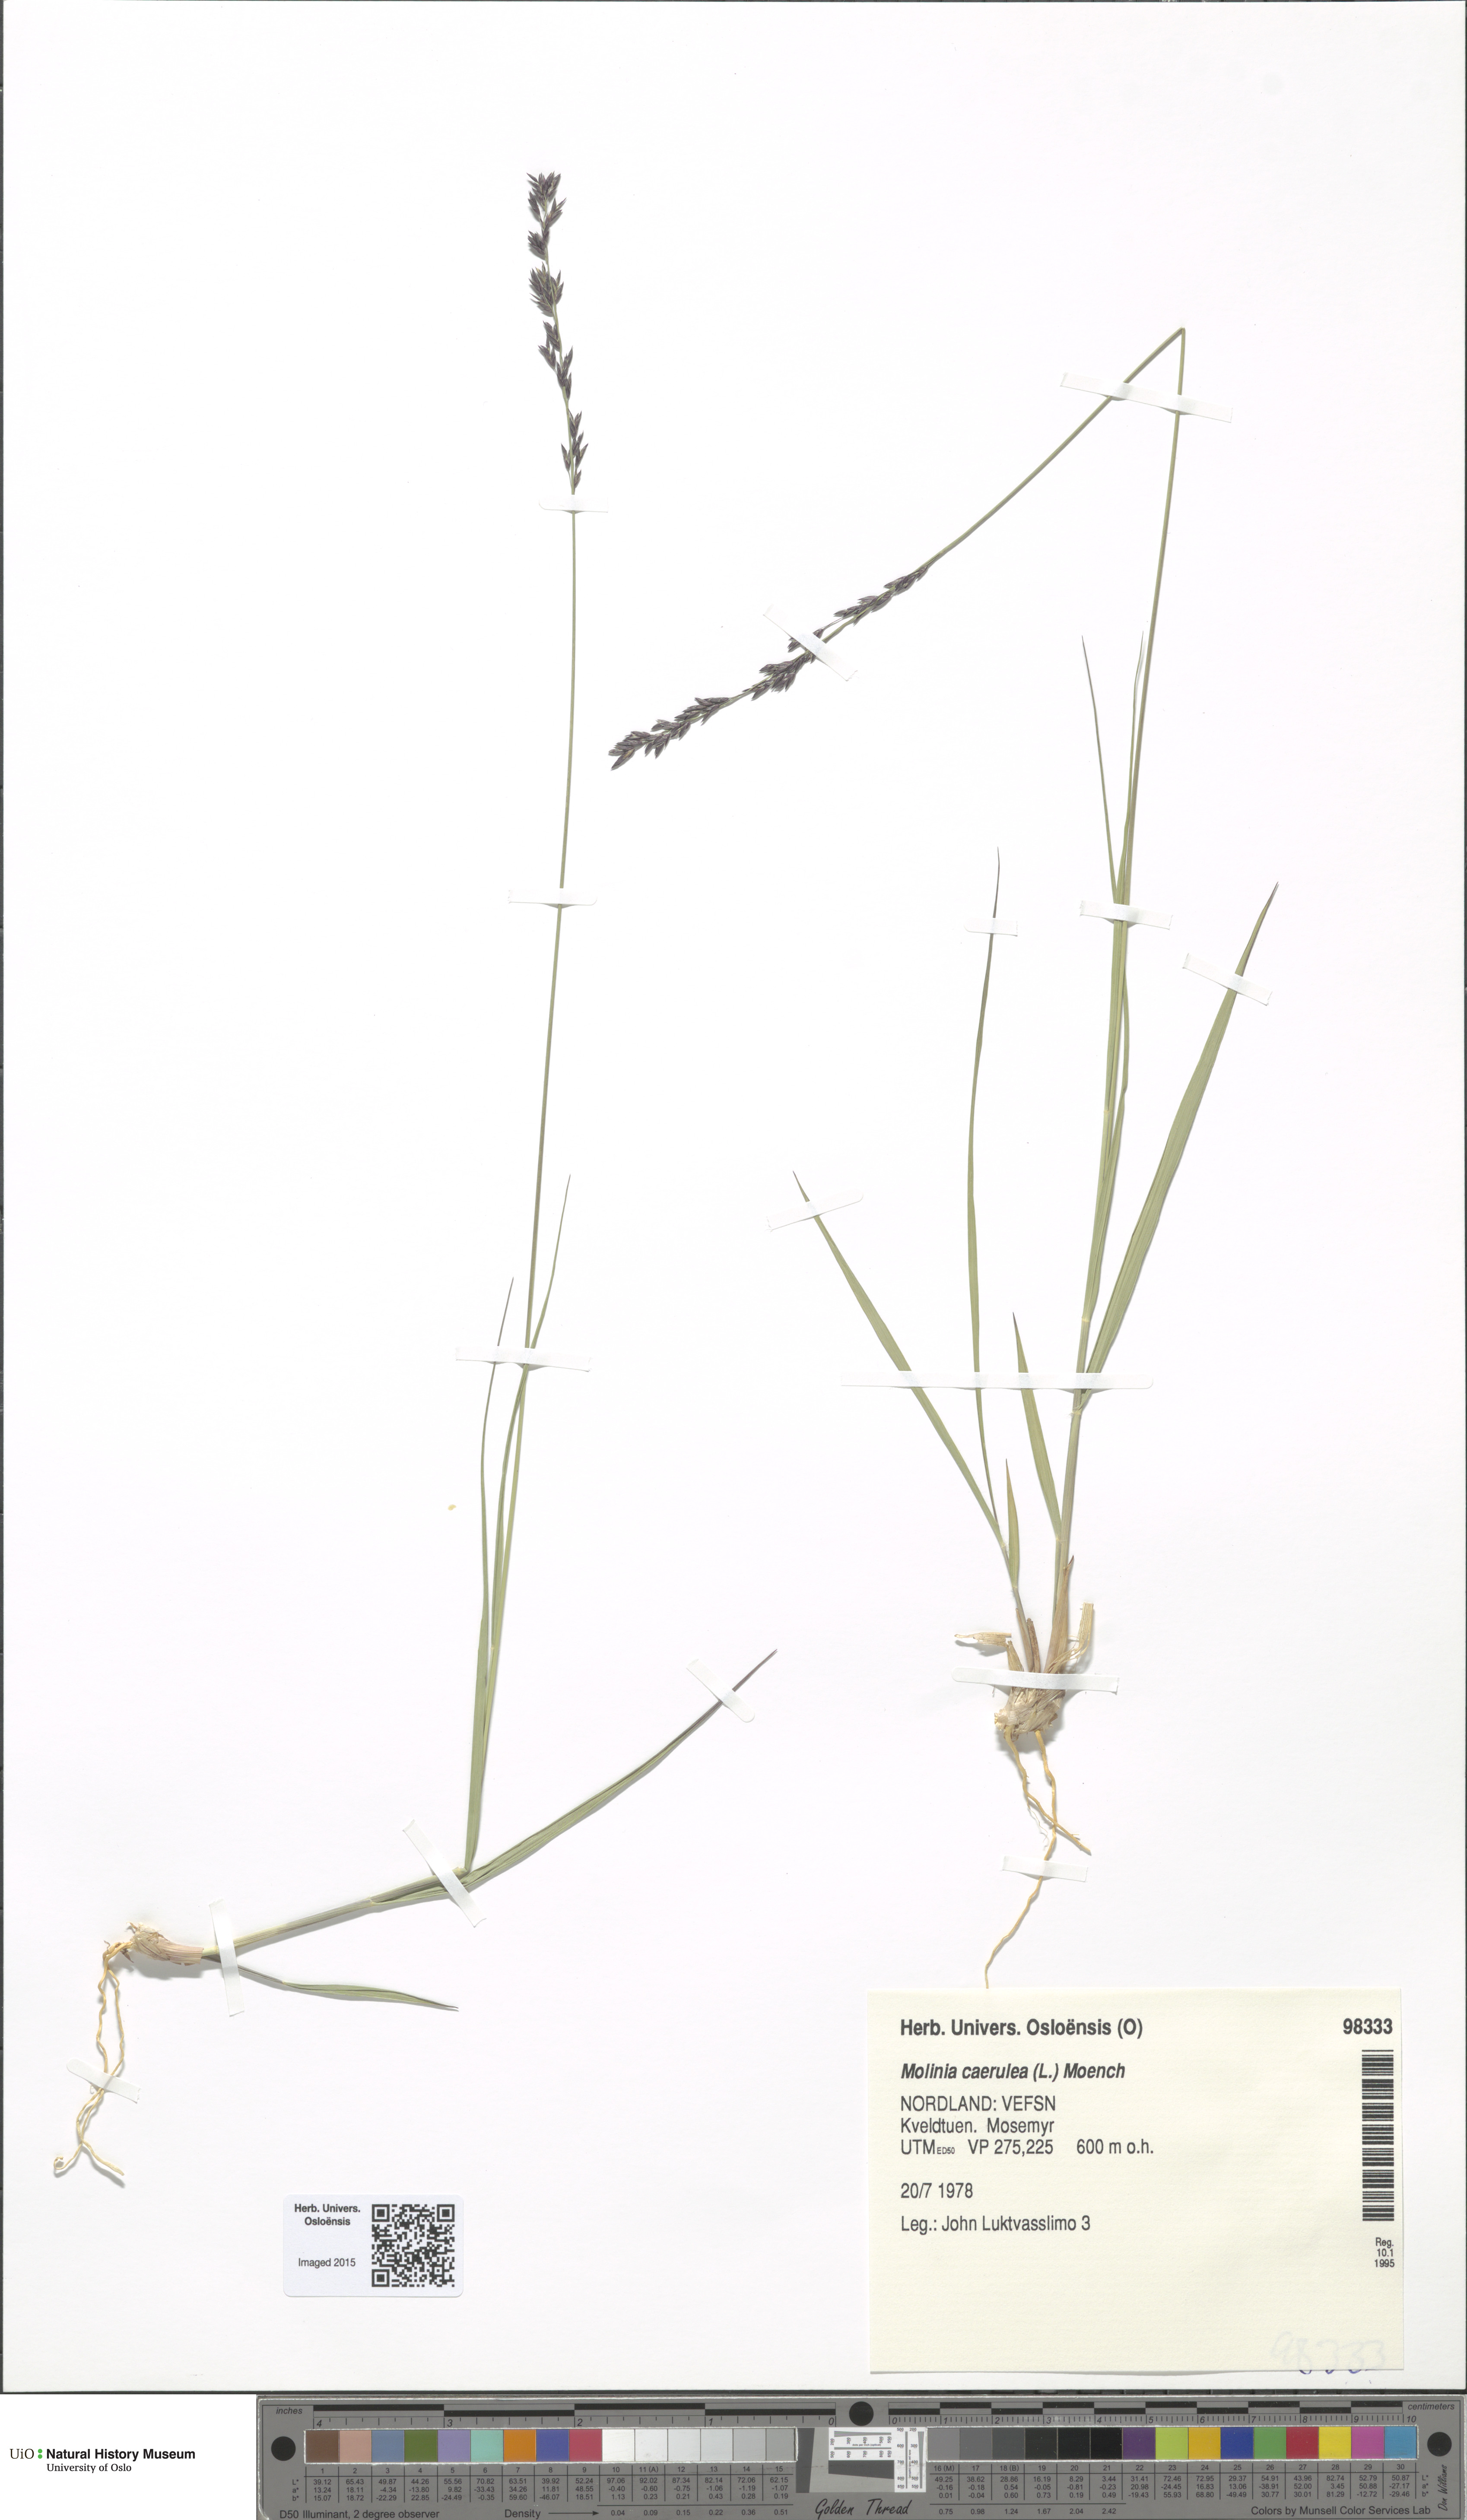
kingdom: Plantae
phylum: Tracheophyta
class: Liliopsida
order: Poales
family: Poaceae
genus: Molinia
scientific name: Molinia caerulea
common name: Purple moor-grass
